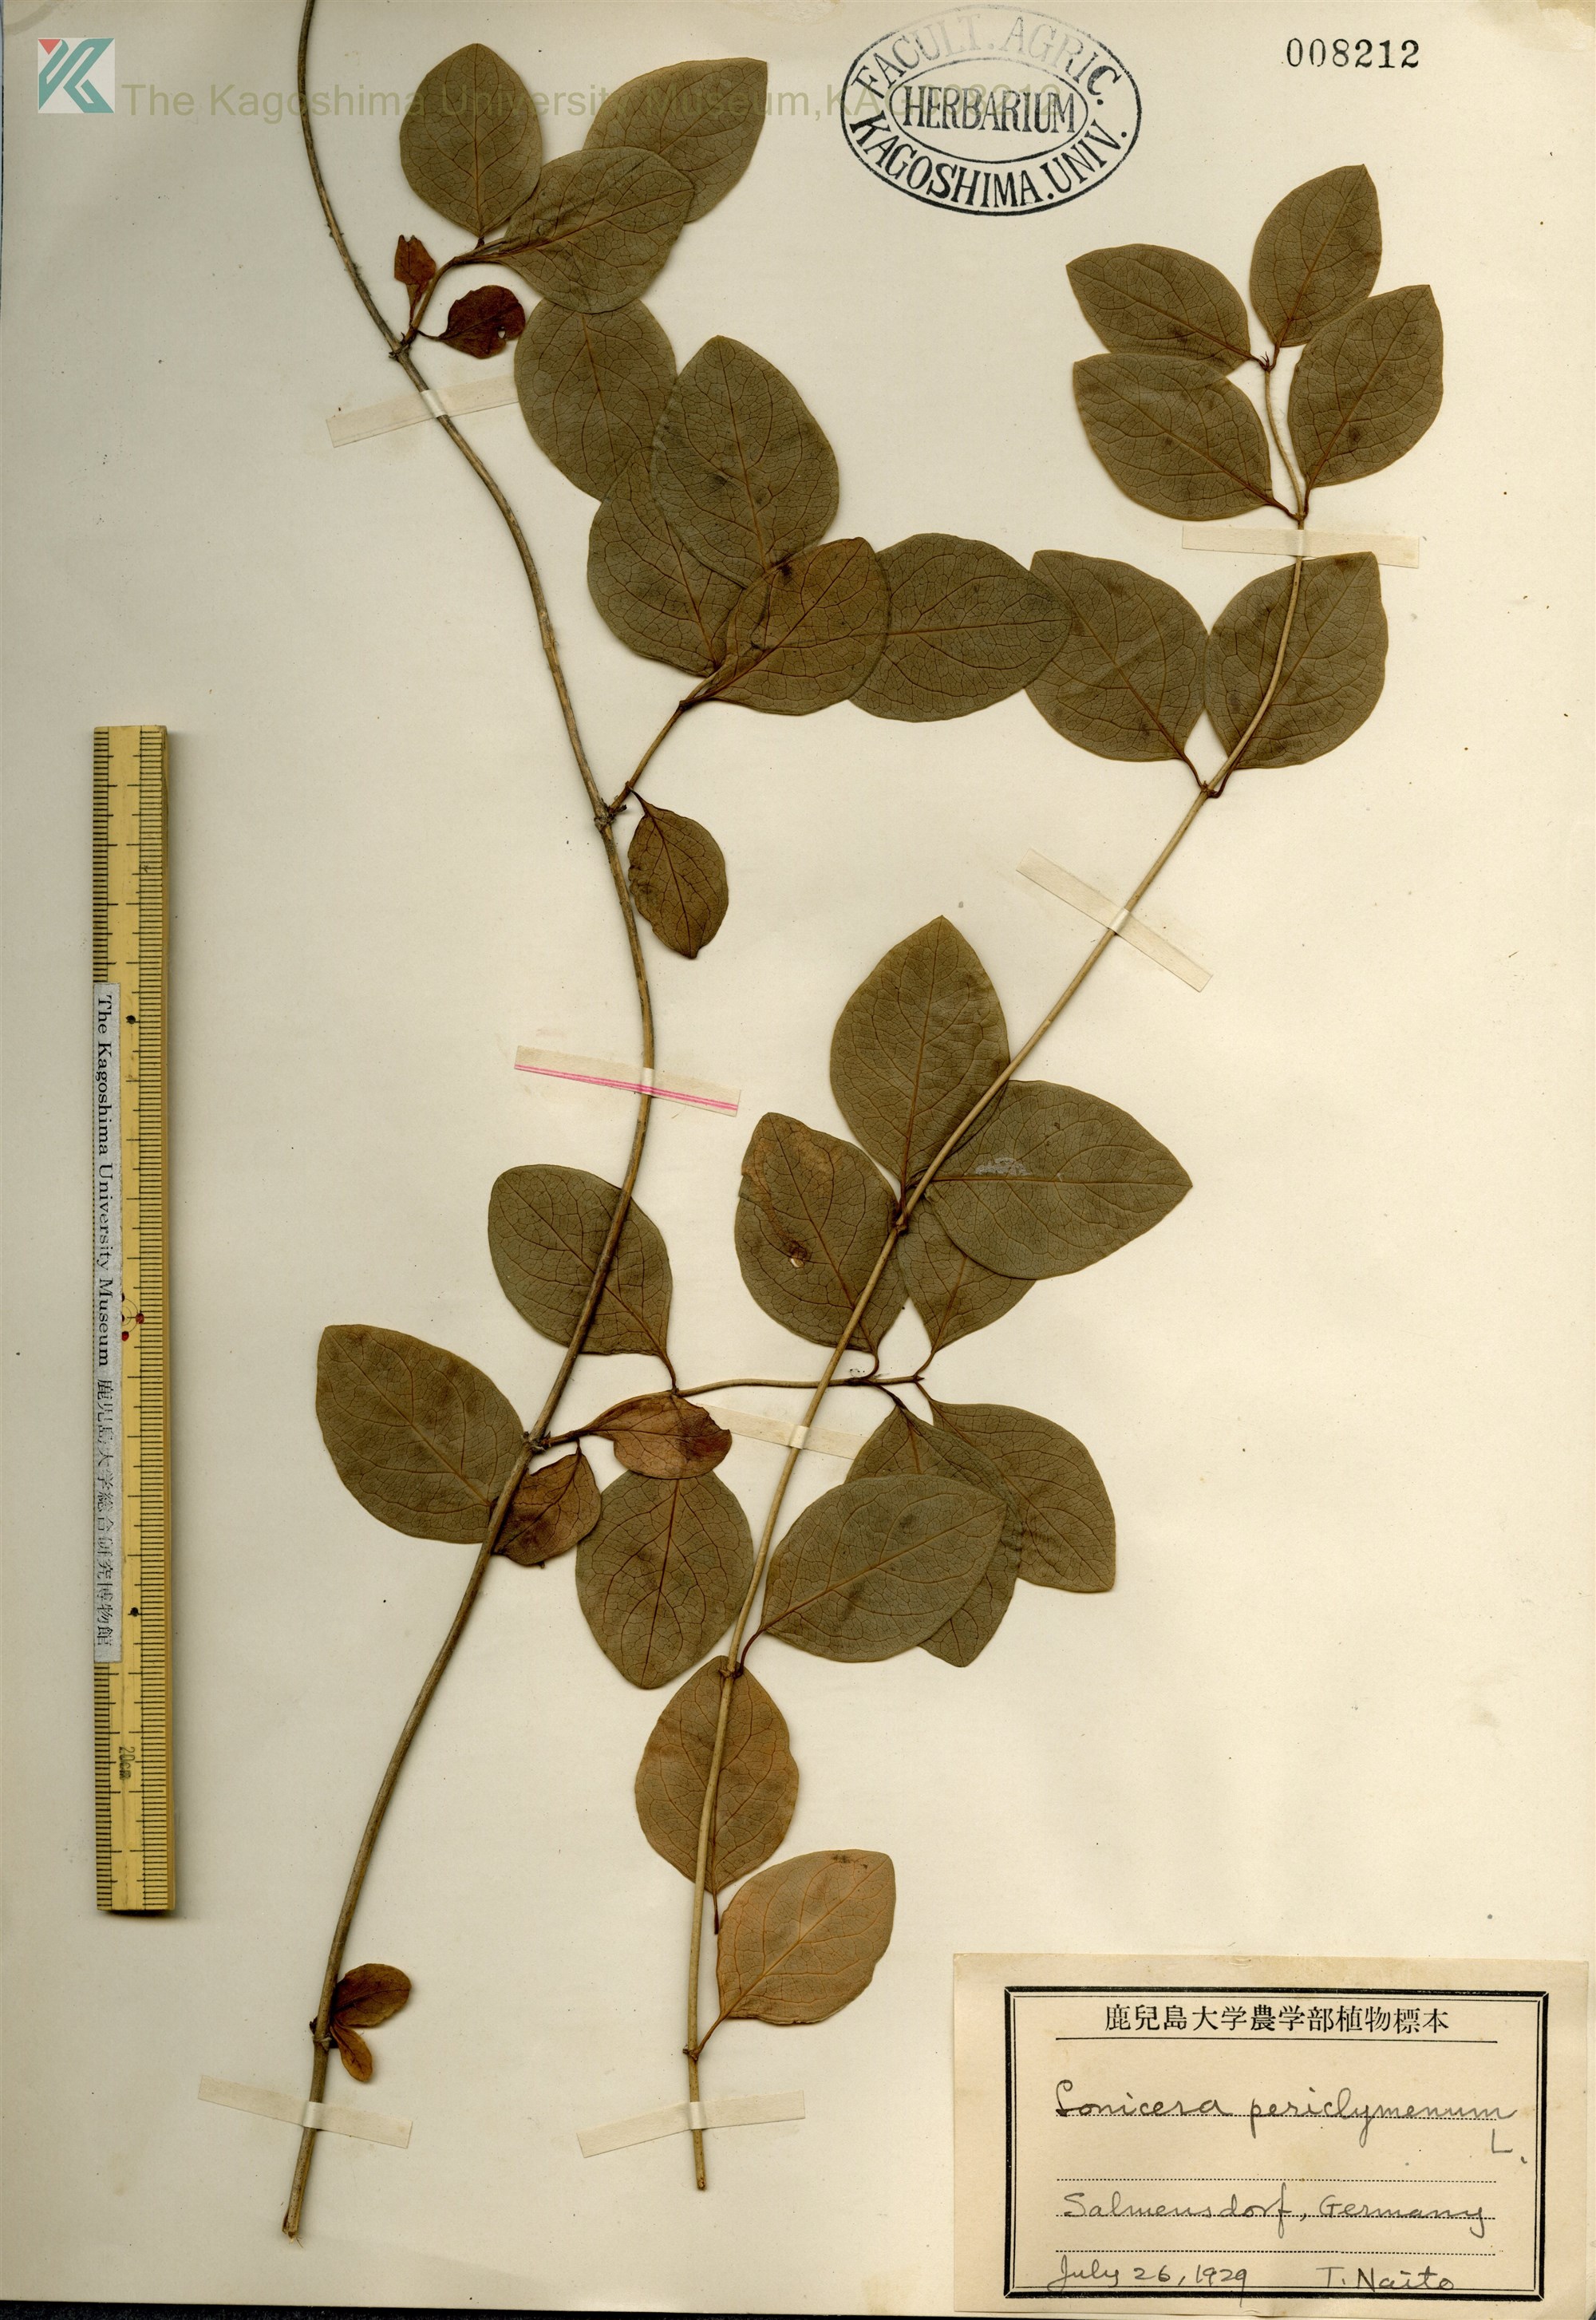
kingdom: Plantae
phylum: Tracheophyta
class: Magnoliopsida
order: Dipsacales
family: Caprifoliaceae
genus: Lonicera
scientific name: Lonicera periclymenum
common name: European honeysuckle
